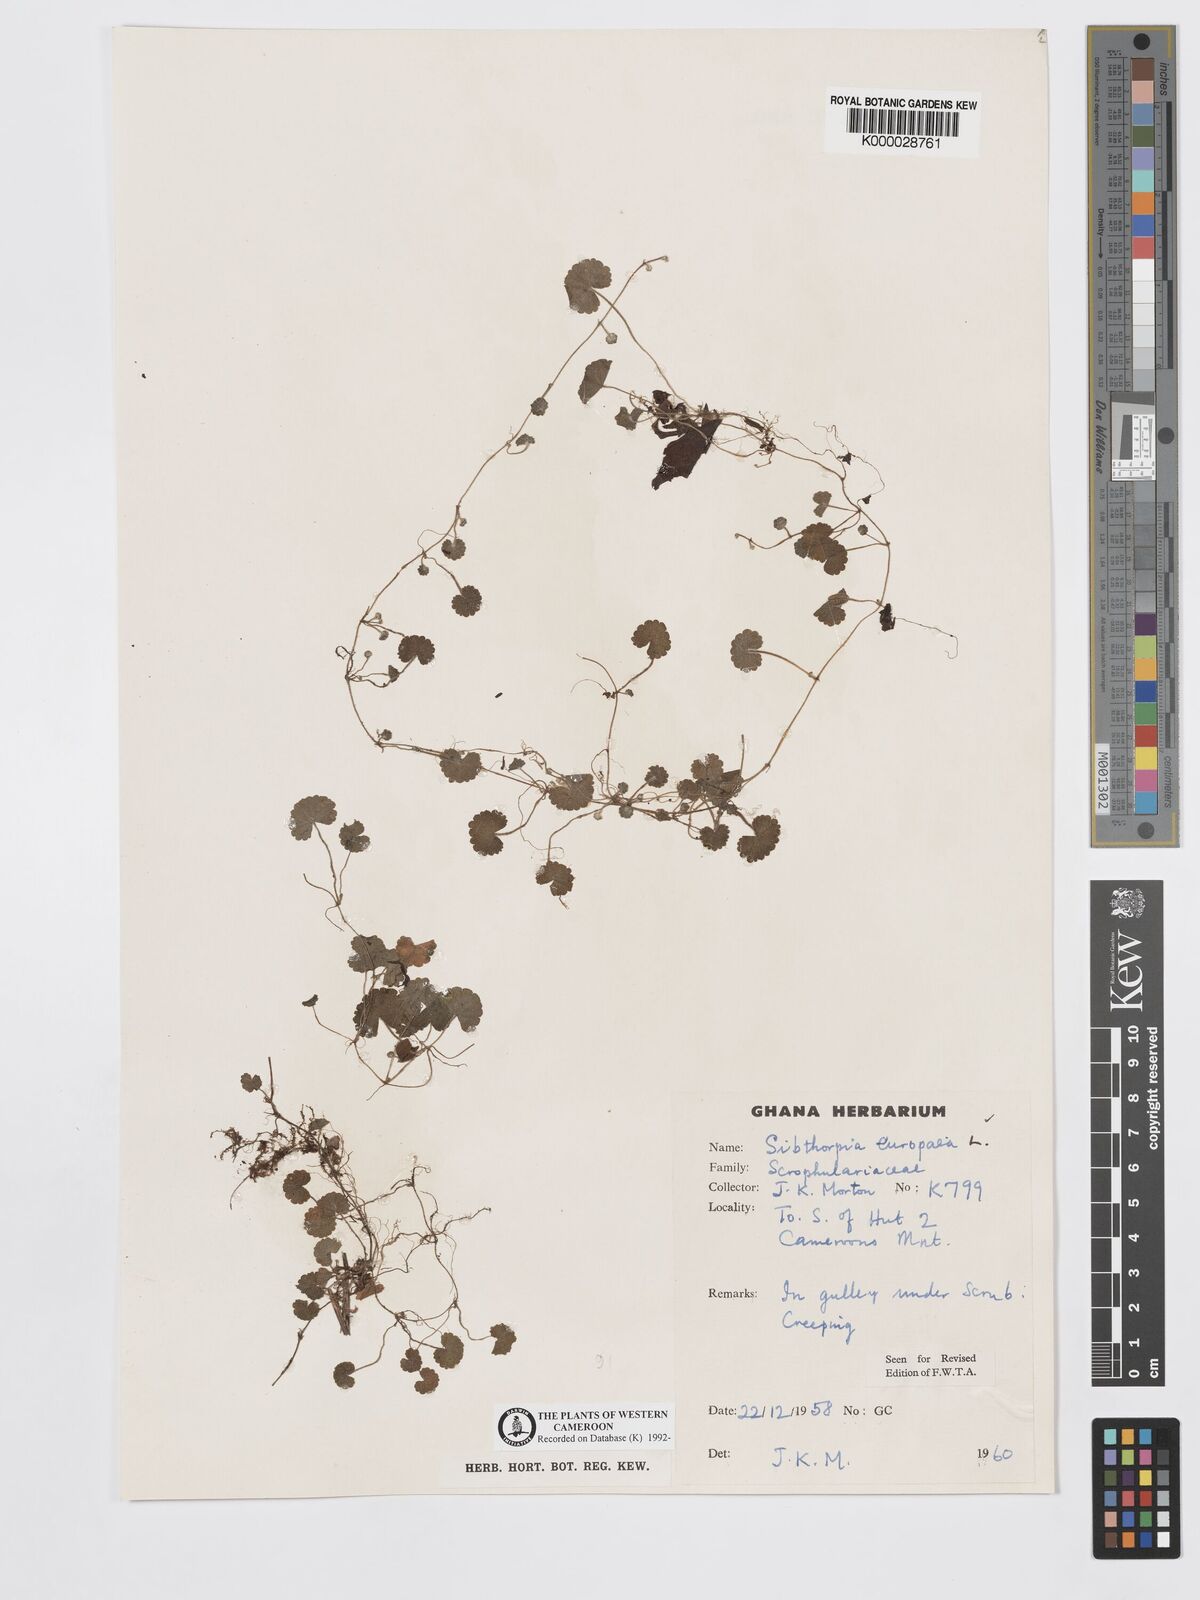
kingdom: Plantae
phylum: Tracheophyta
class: Magnoliopsida
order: Lamiales
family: Plantaginaceae
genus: Sibthorpia
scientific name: Sibthorpia europaea
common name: Cornish moneywort
